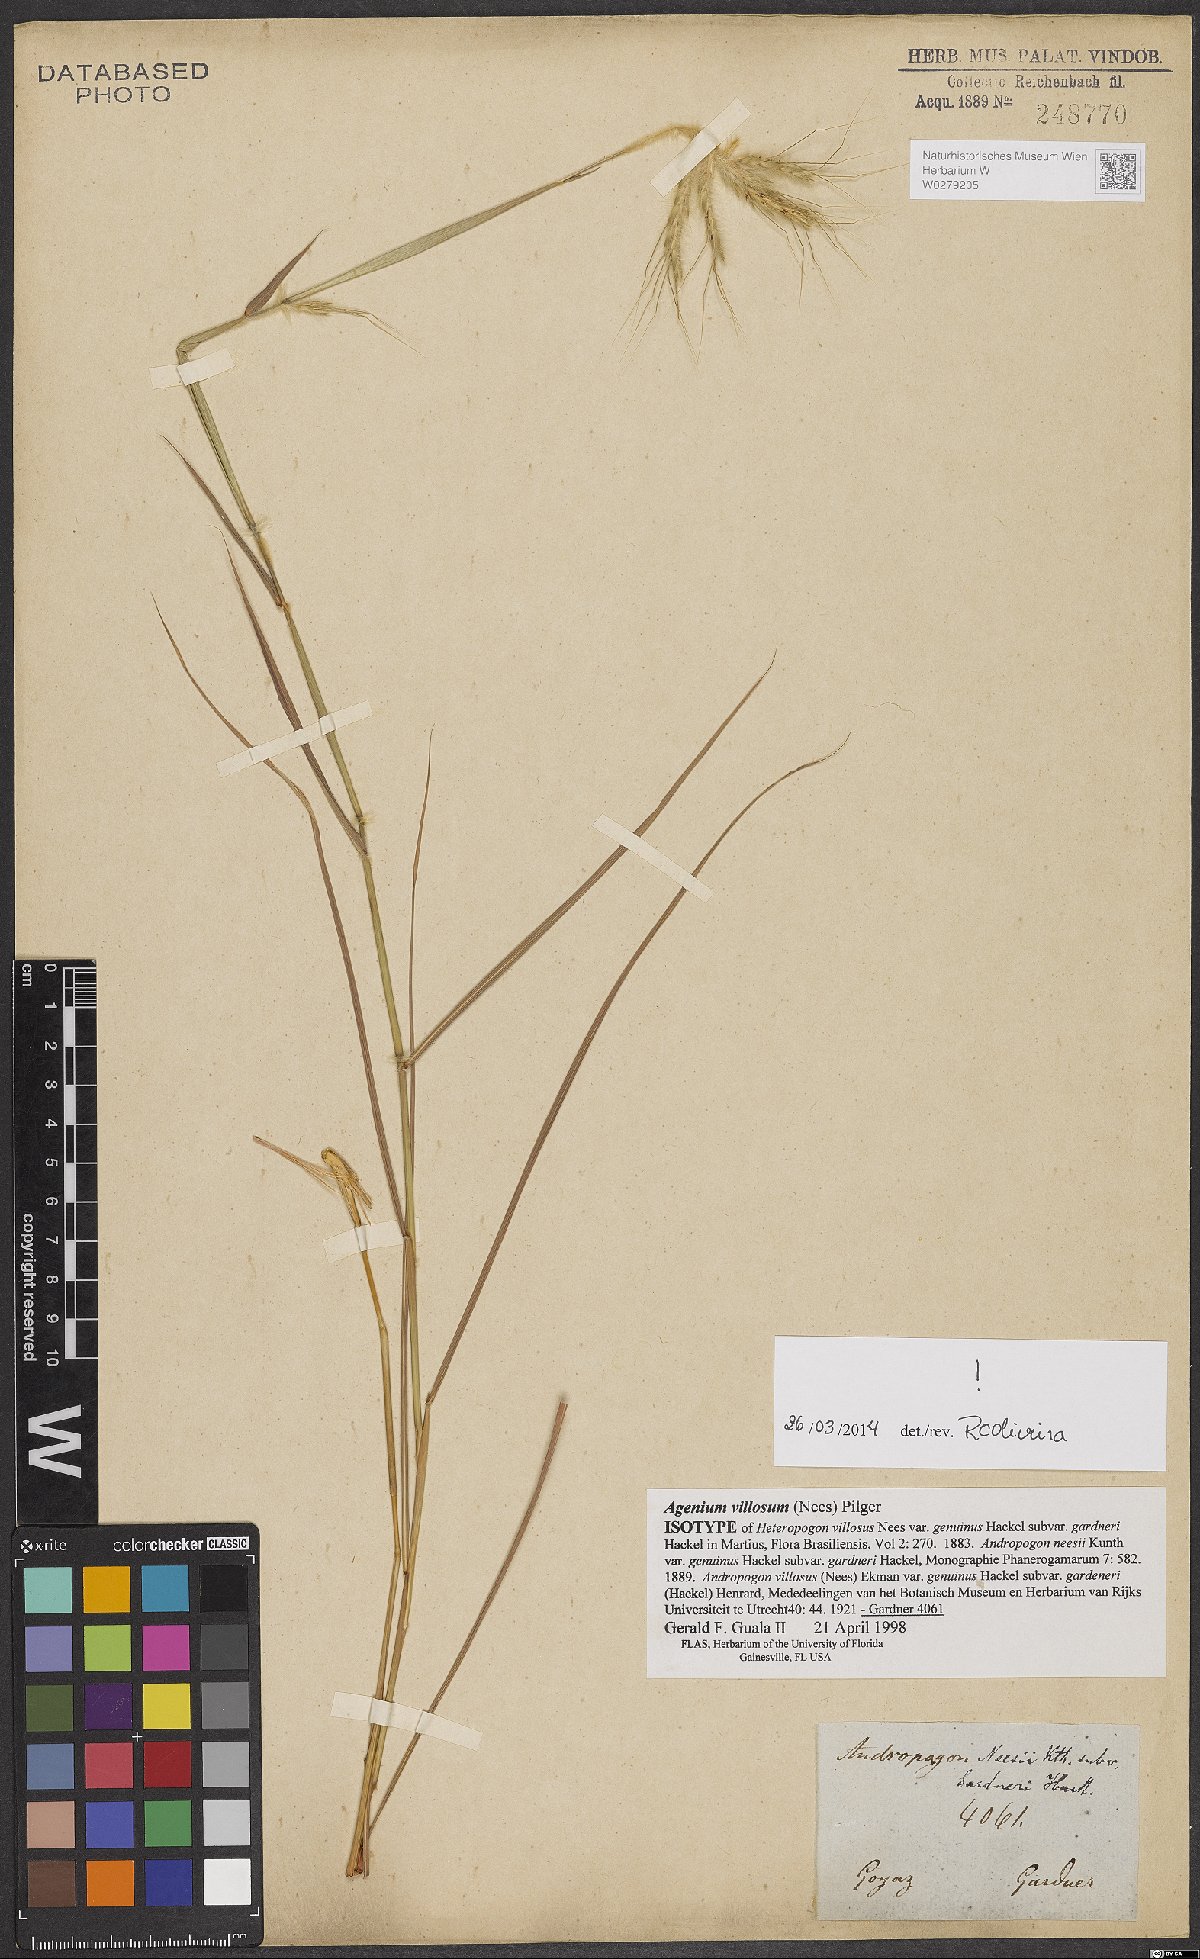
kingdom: Plantae
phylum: Tracheophyta
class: Liliopsida
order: Poales
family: Poaceae
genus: Agenium
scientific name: Agenium villosum
